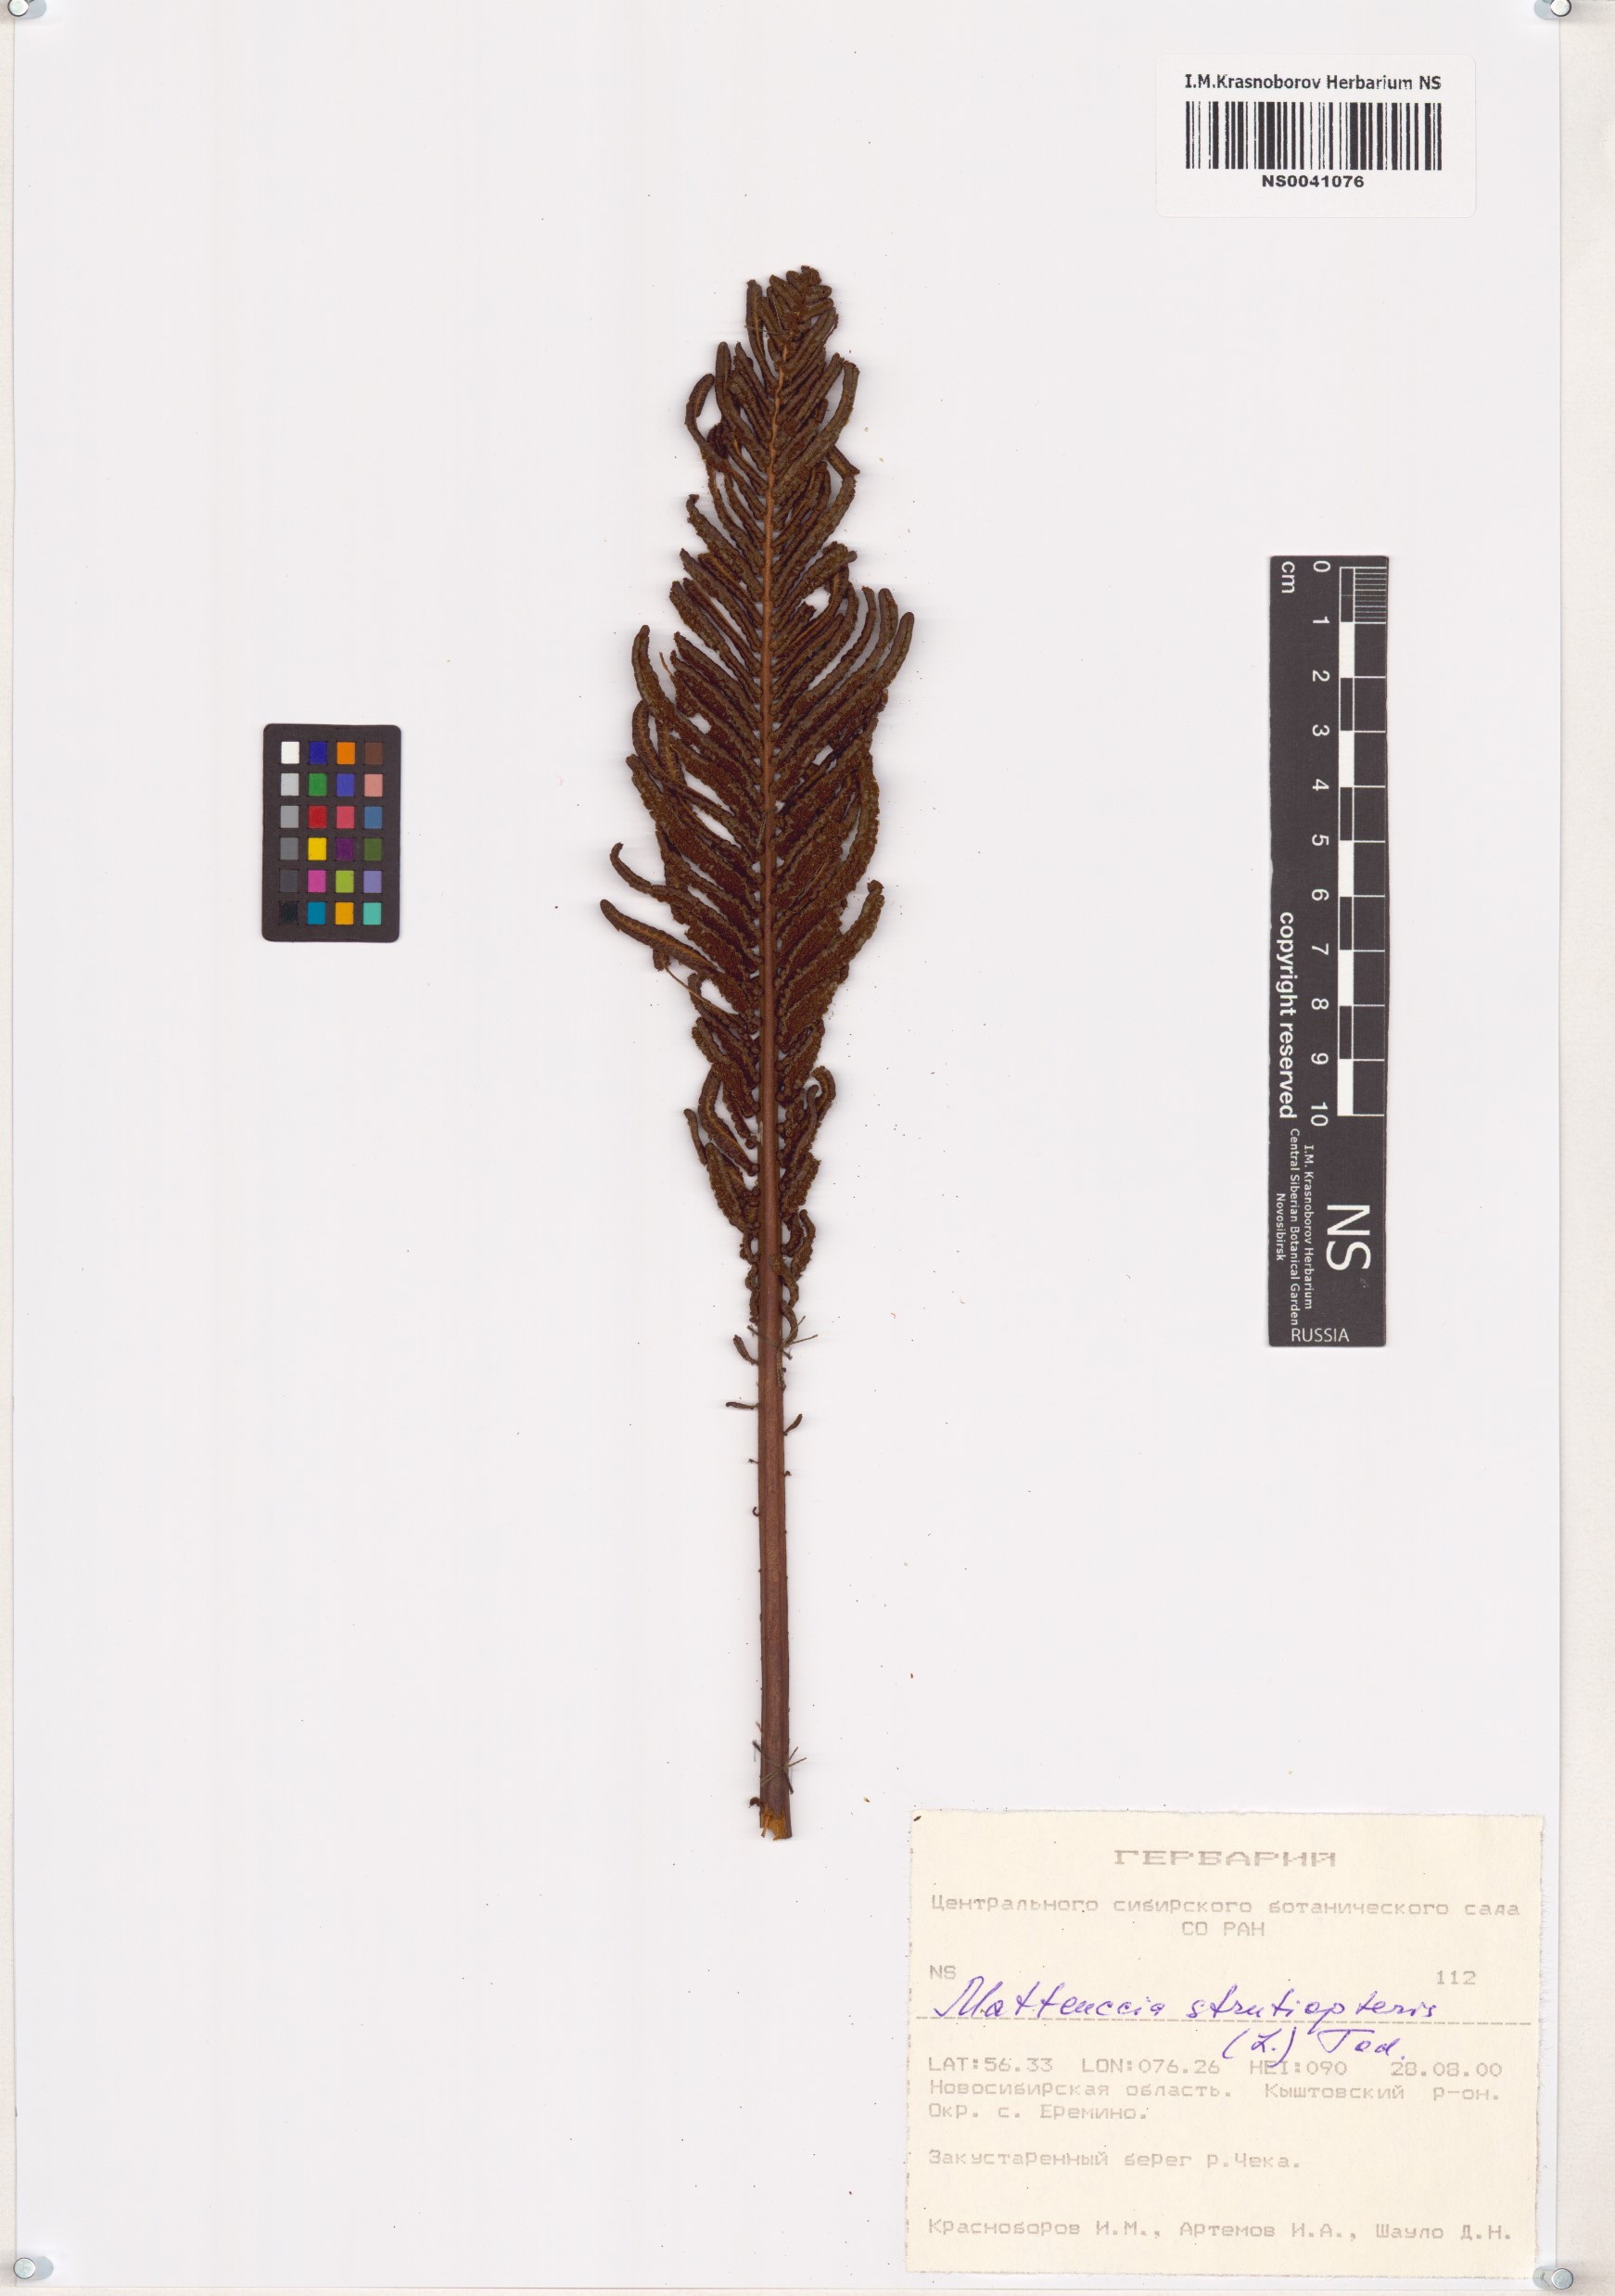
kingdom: Plantae
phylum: Tracheophyta
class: Polypodiopsida
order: Polypodiales
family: Onocleaceae
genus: Matteuccia
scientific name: Matteuccia struthiopteris
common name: Ostrich fern
